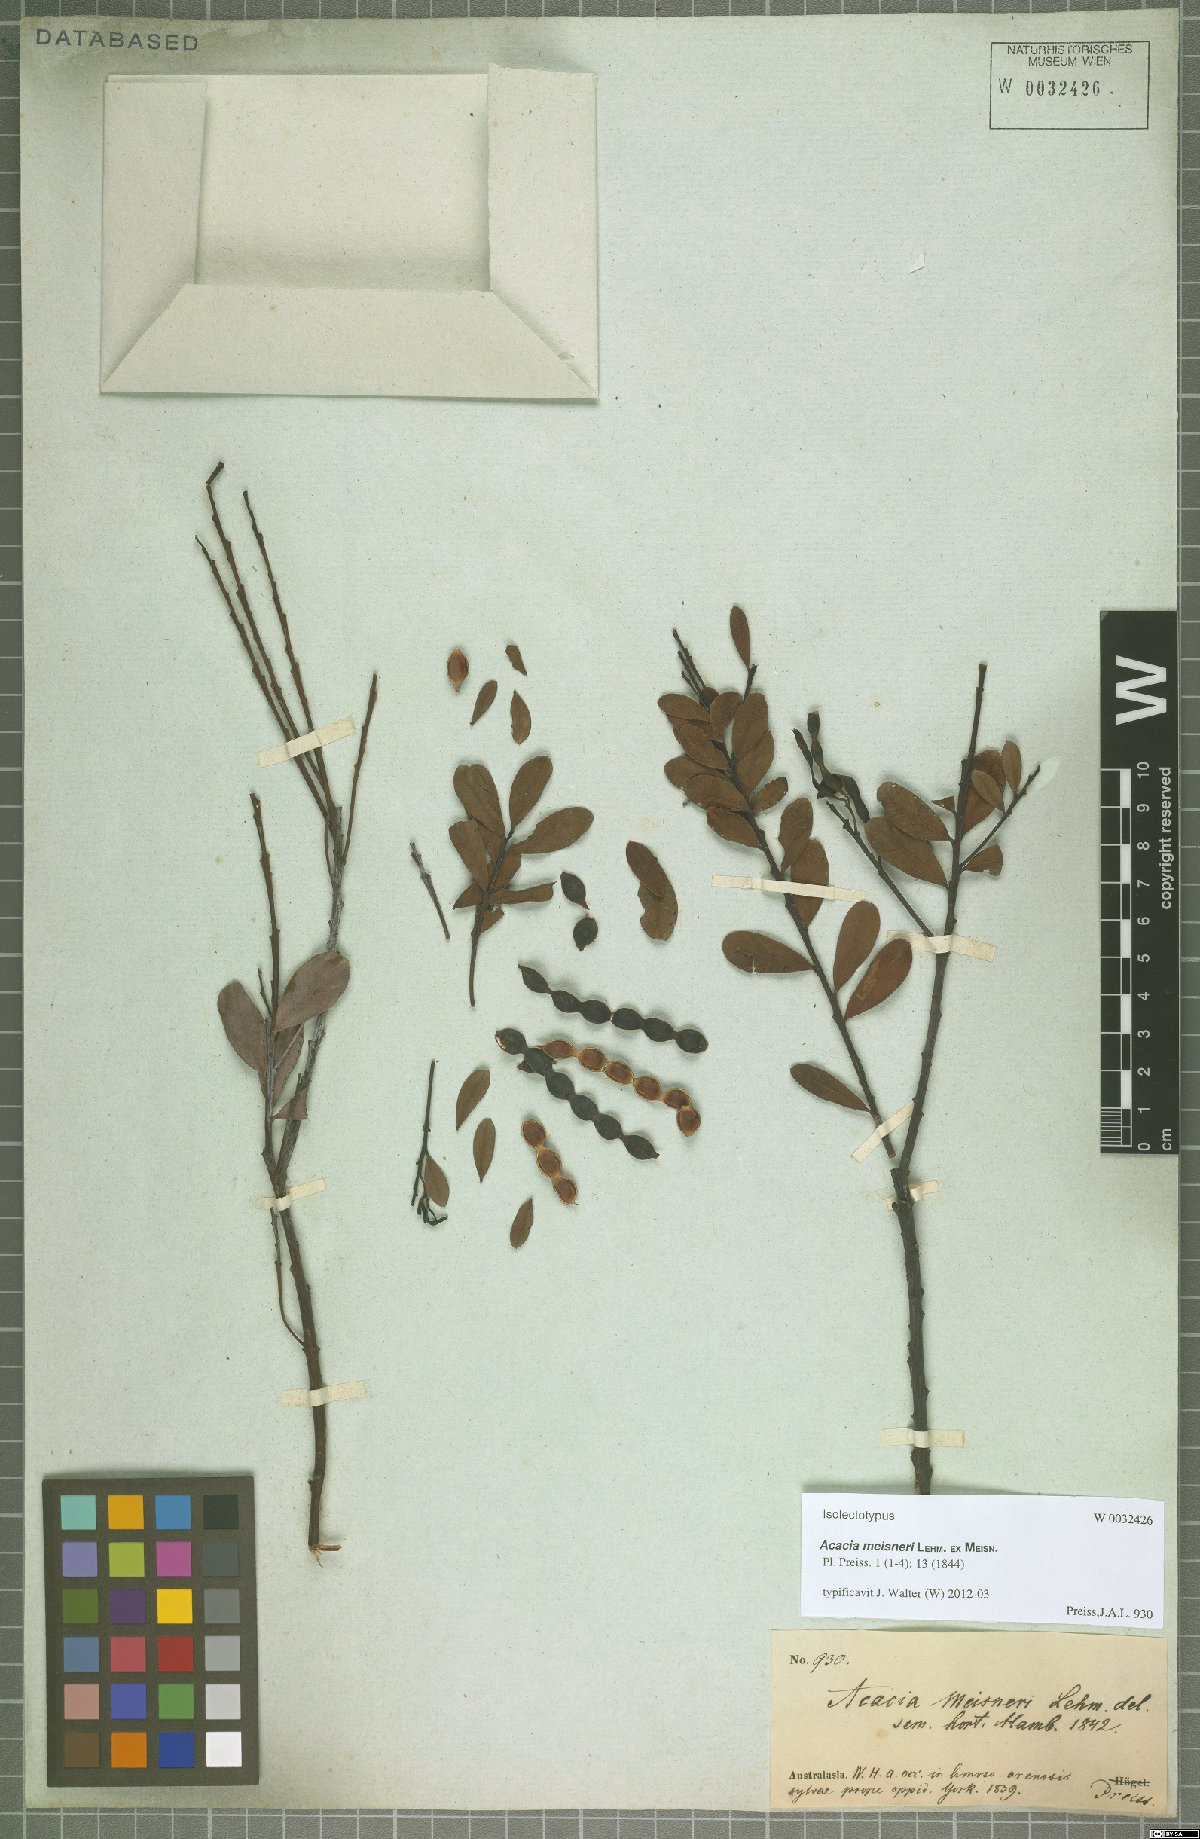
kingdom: Plantae
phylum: Tracheophyta
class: Magnoliopsida
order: Fabales
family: Fabaceae
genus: Acacia
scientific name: Acacia meisneri
